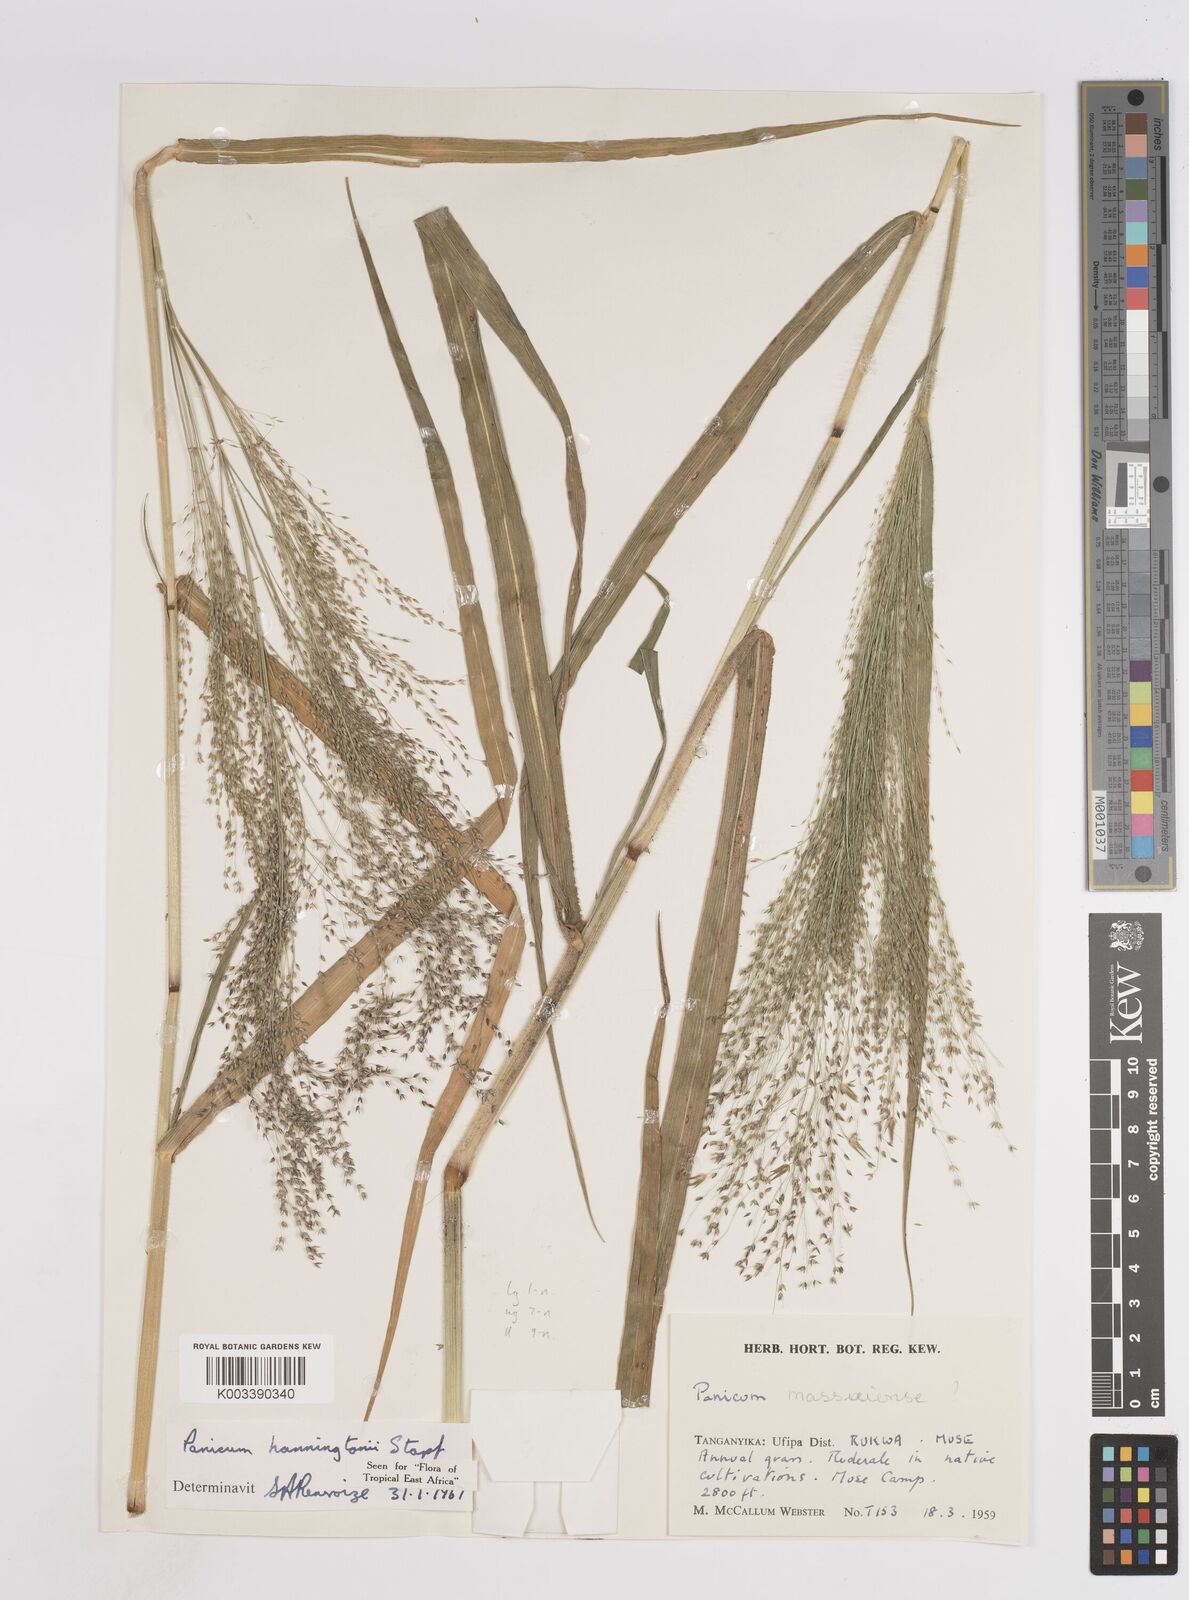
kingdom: Plantae
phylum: Tracheophyta
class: Liliopsida
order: Poales
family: Poaceae
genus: Panicum
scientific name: Panicum hanningtonii
